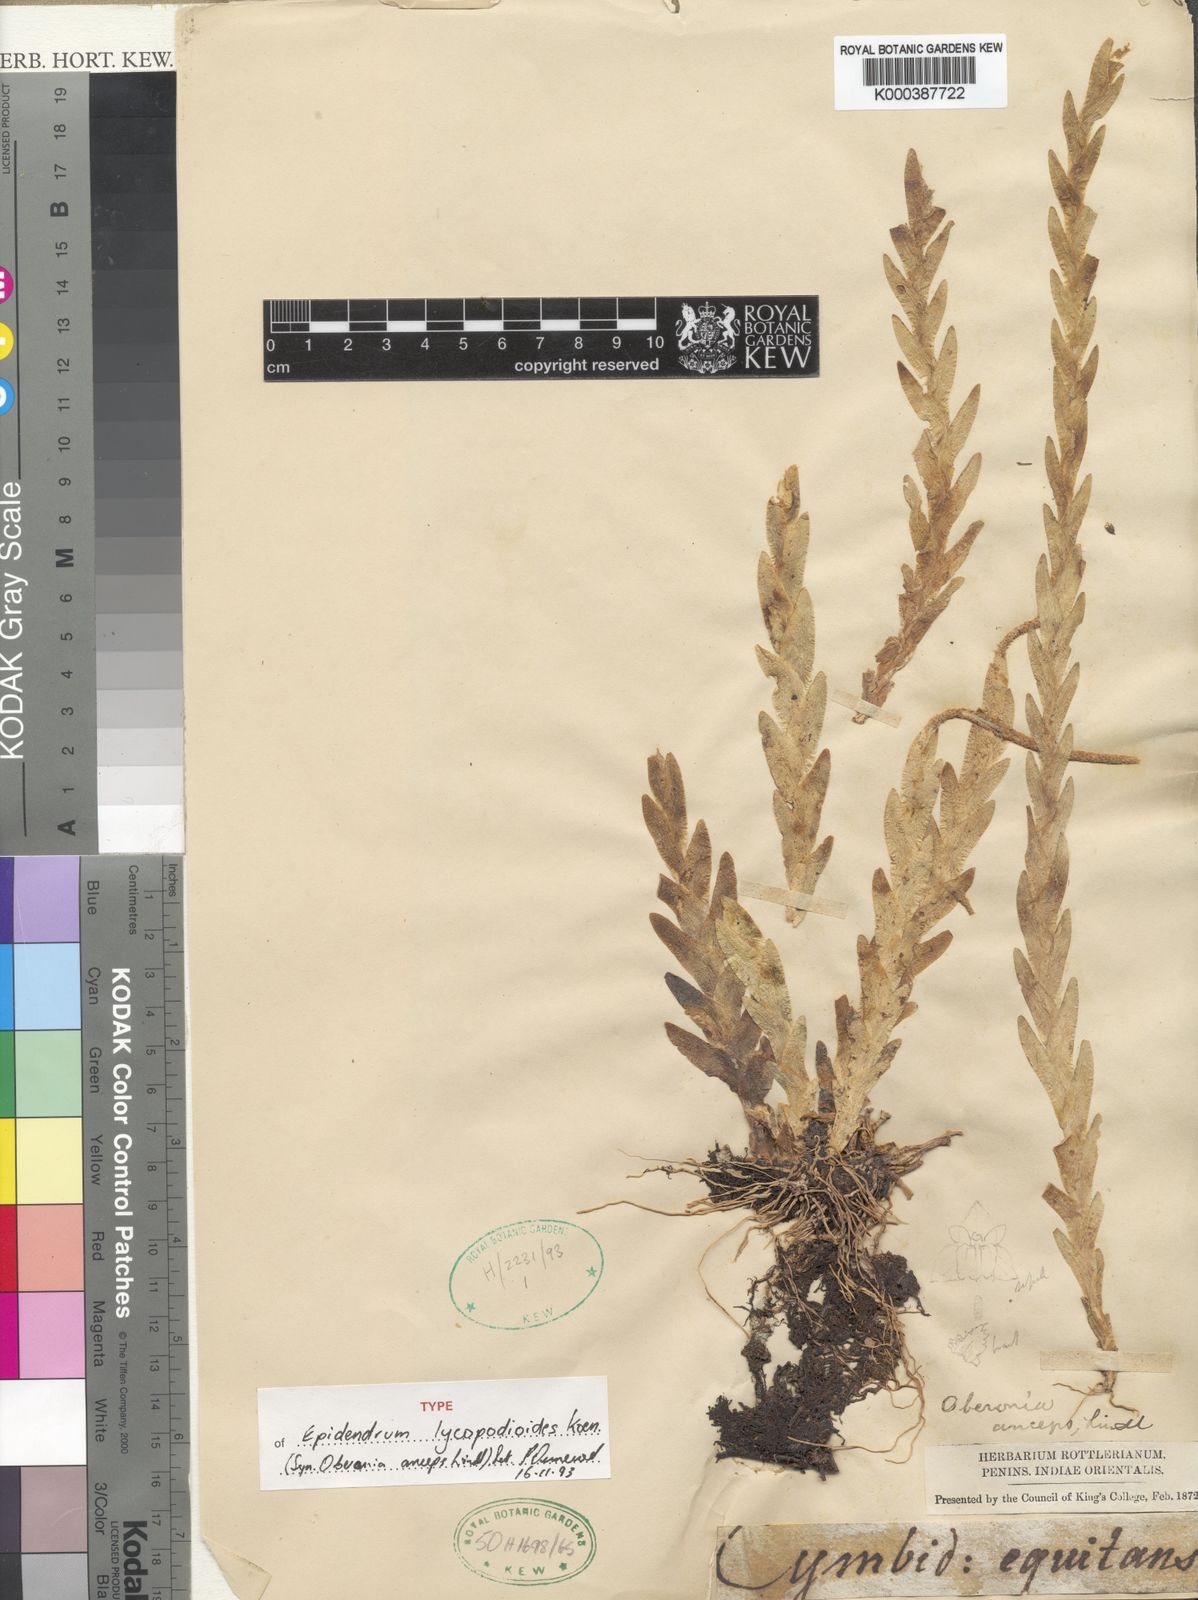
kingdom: Plantae
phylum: Tracheophyta
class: Liliopsida
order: Asparagales
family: Orchidaceae
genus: Oberonia
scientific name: Oberonia lycopodioides
